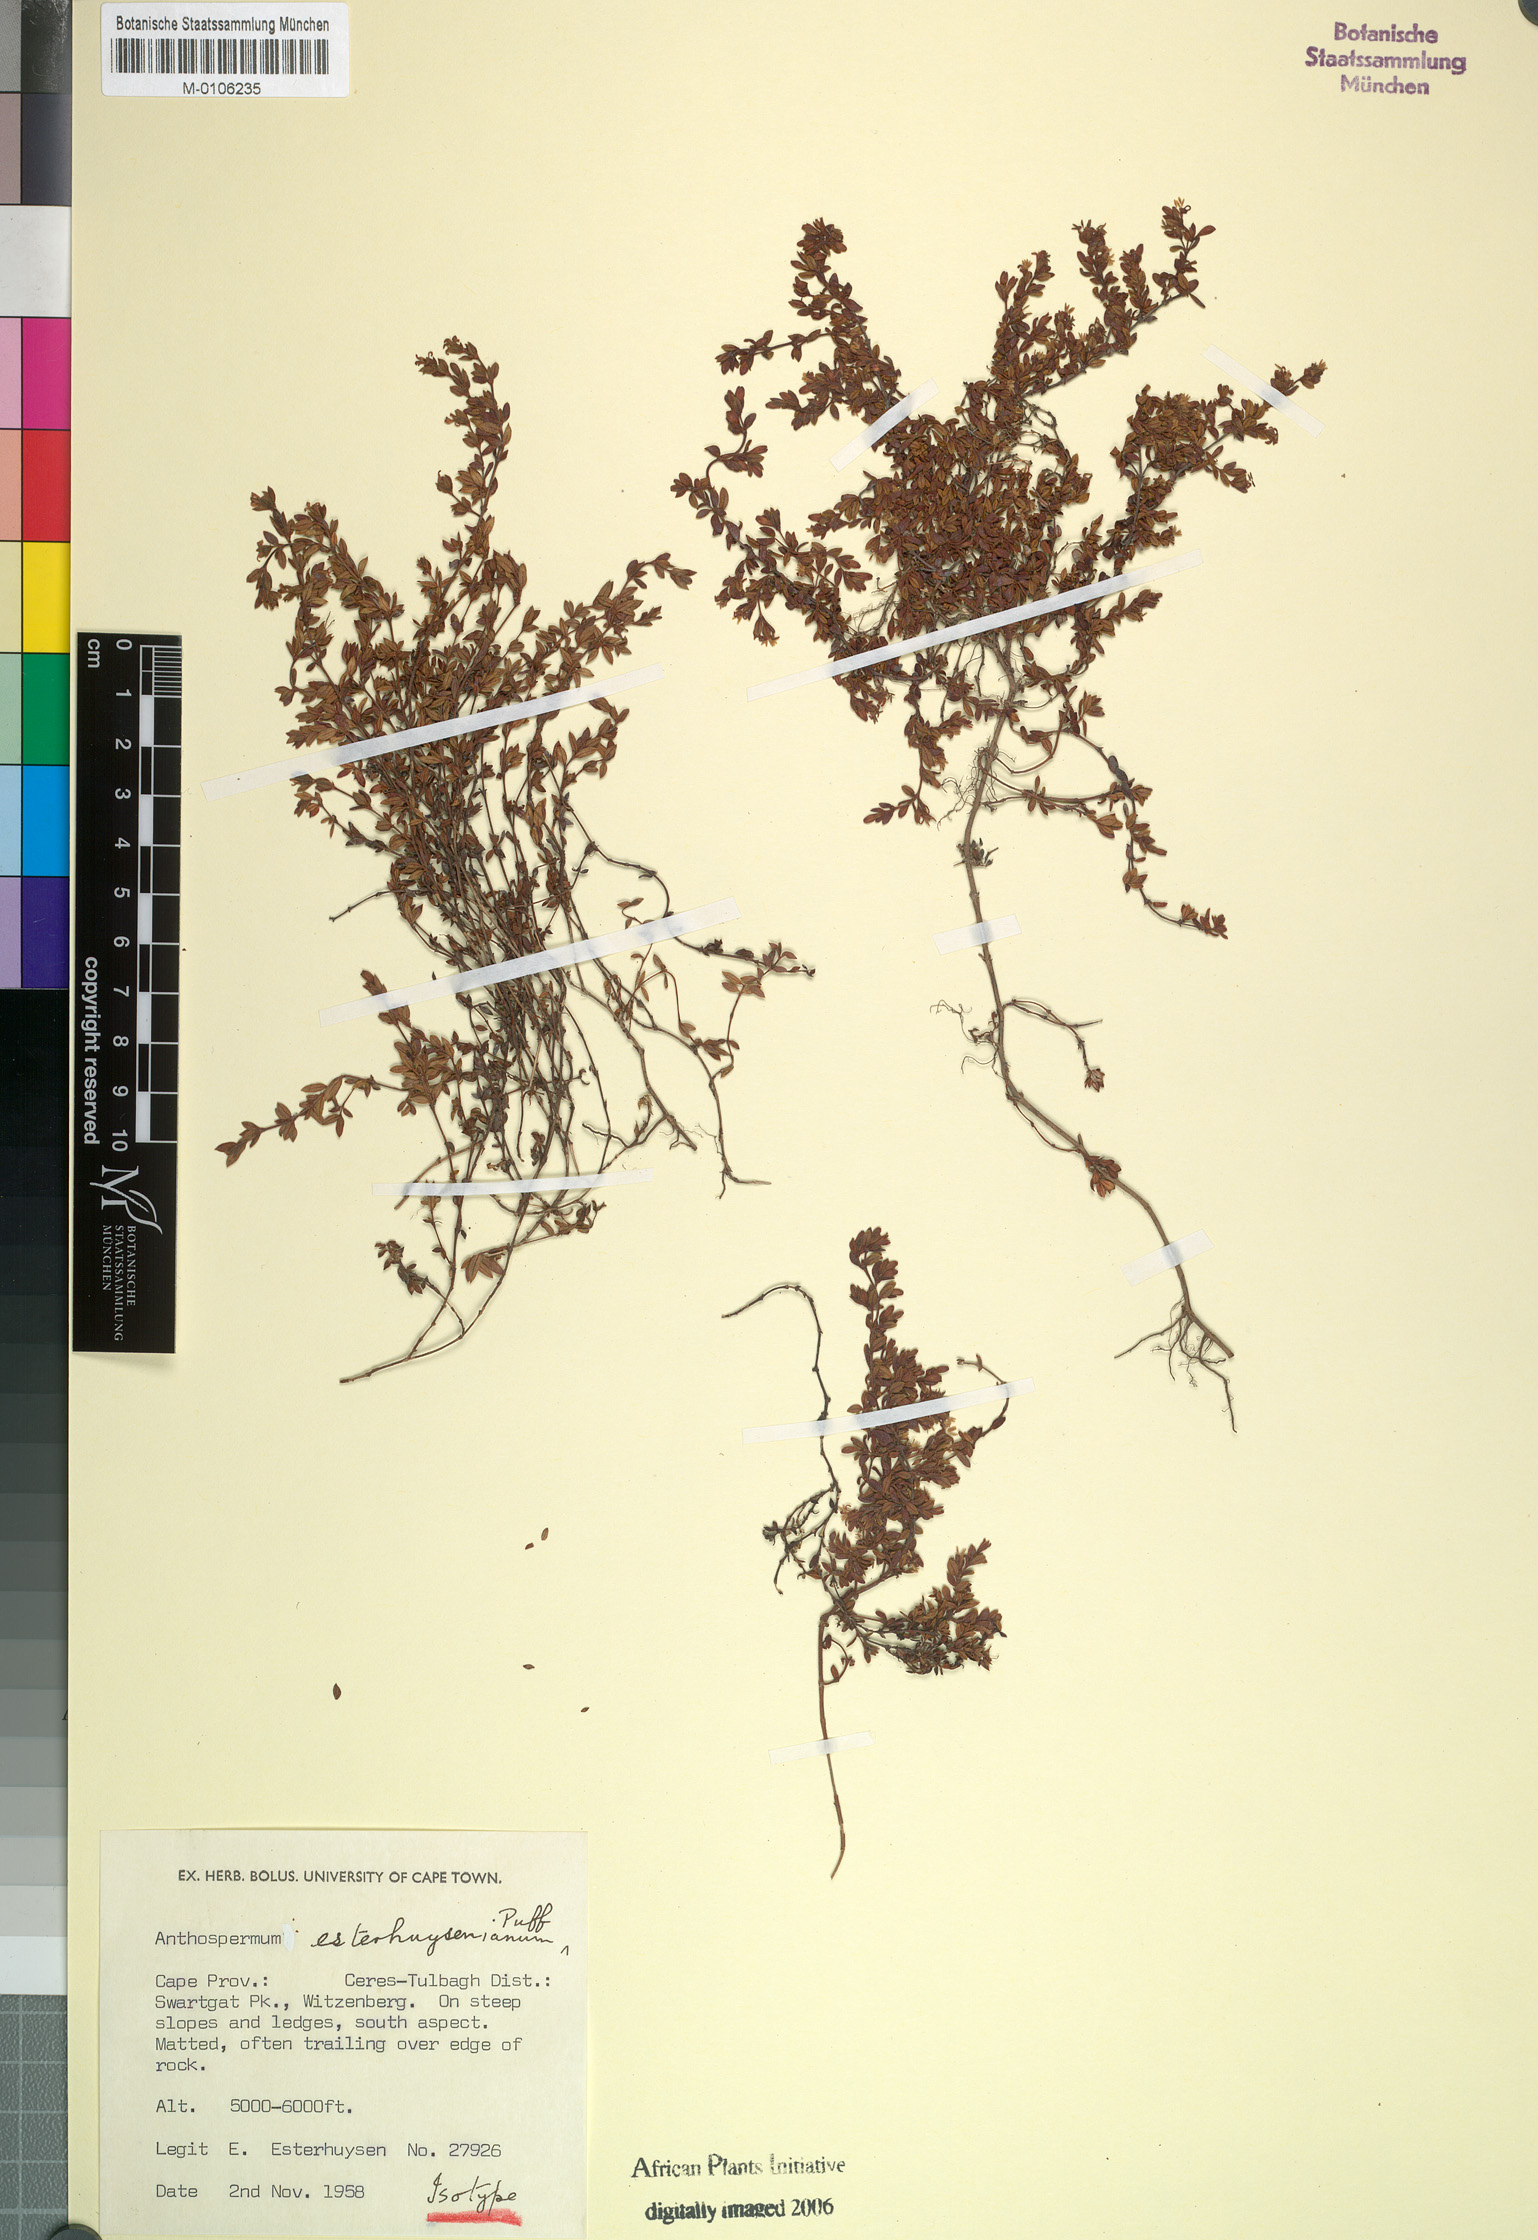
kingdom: Plantae
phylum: Tracheophyta
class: Magnoliopsida
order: Gentianales
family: Rubiaceae
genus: Anthospermum
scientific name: Anthospermum esterhuysenianum
